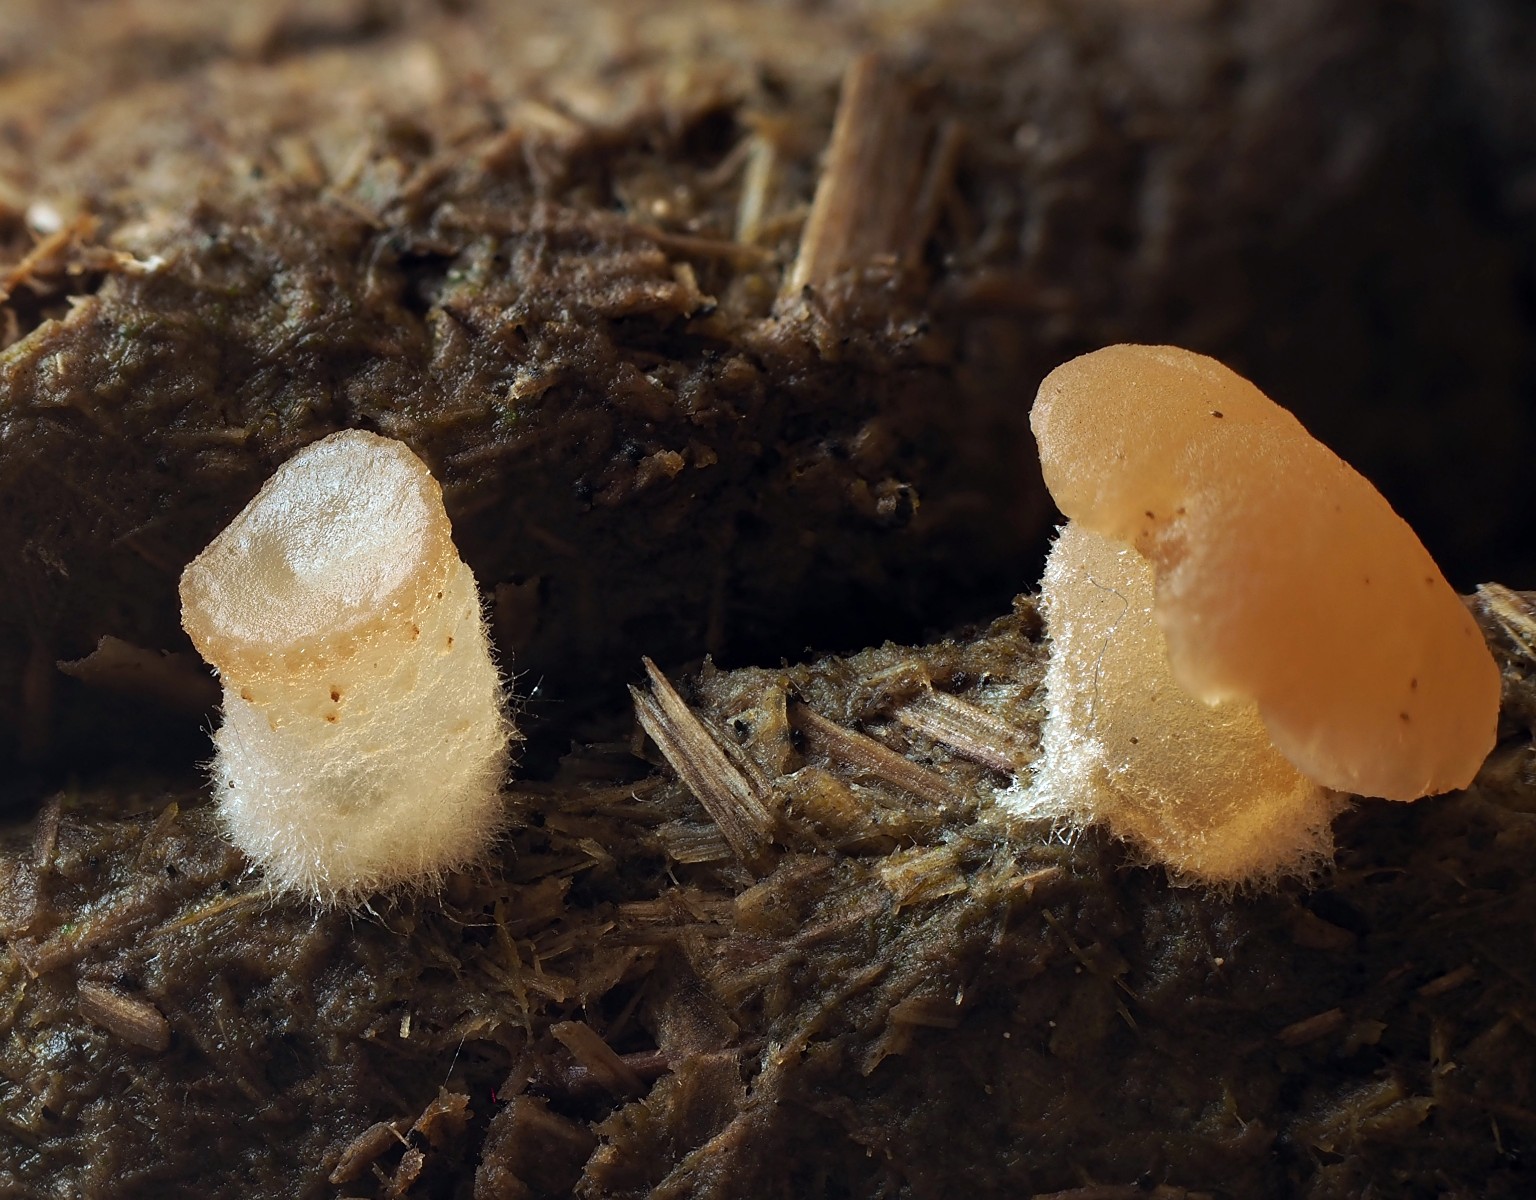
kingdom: Fungi
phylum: Ascomycota
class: Pezizomycetes
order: Pezizales
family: Pezizaceae
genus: Peziza
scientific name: Peziza fimeti
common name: møg-bægersvamp
